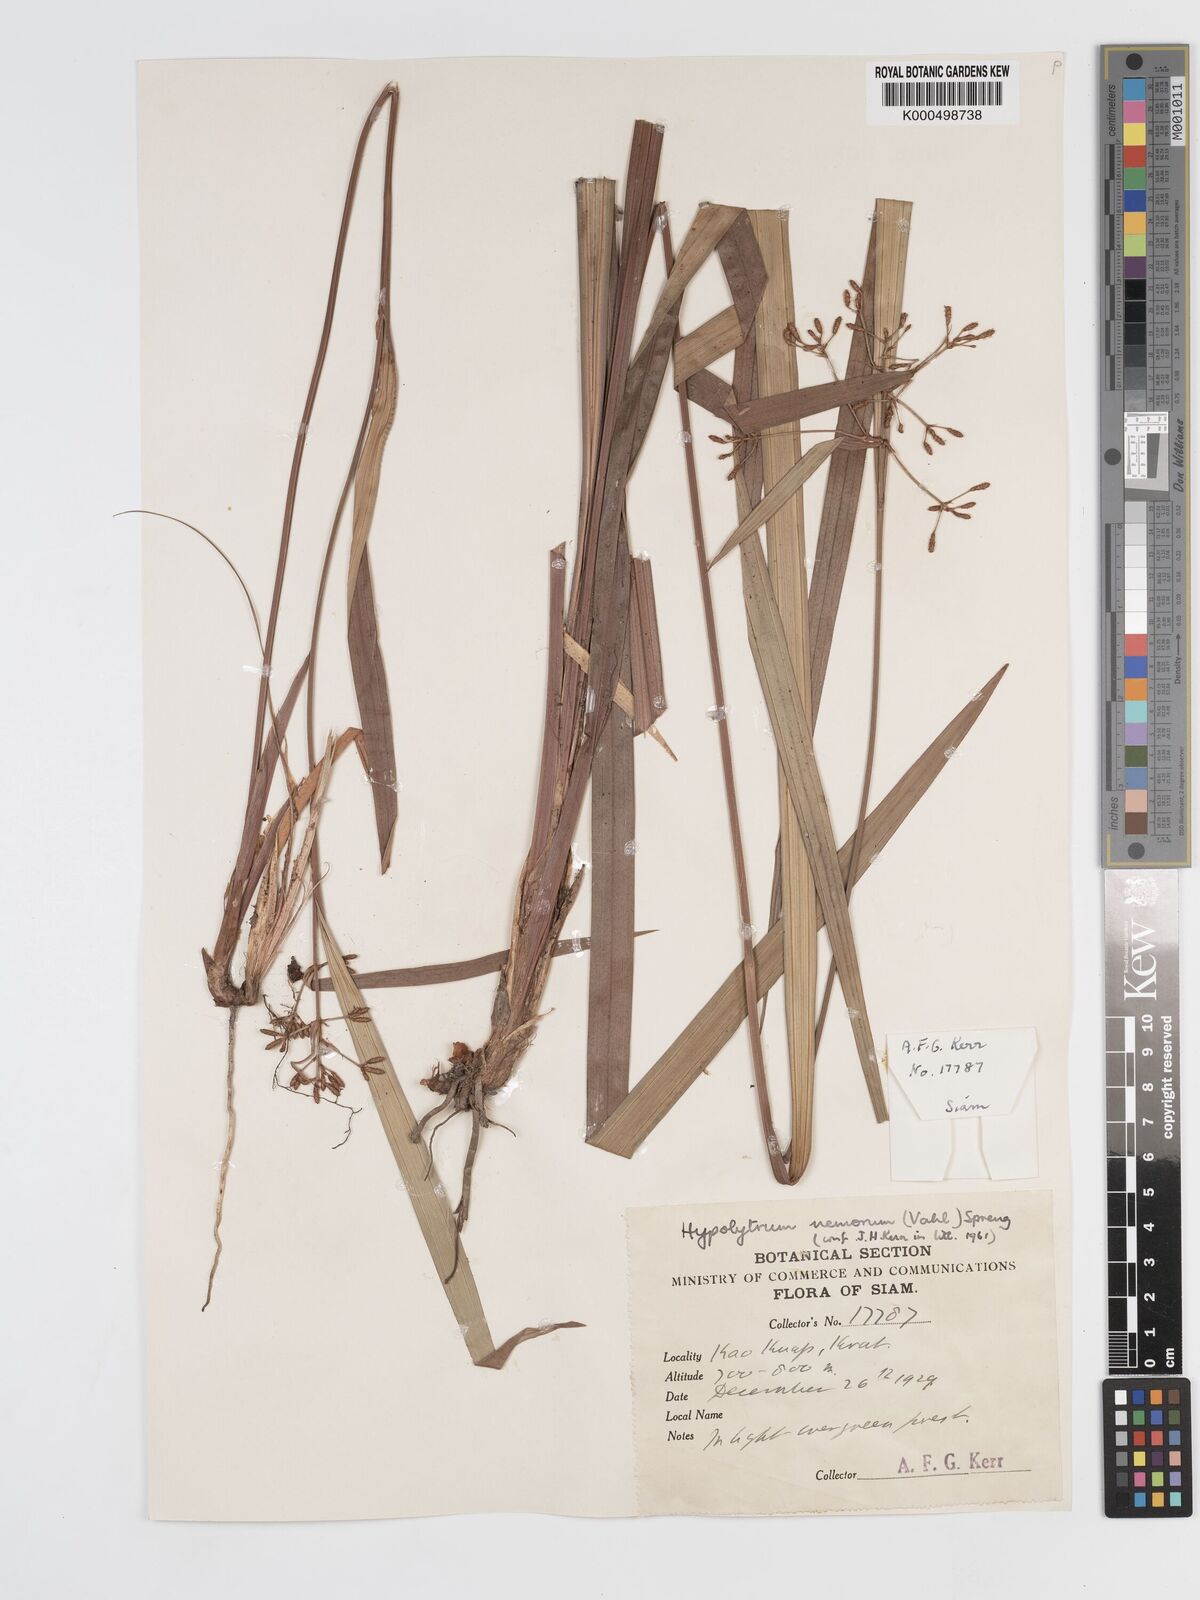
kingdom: Plantae
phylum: Tracheophyta
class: Liliopsida
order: Poales
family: Cyperaceae
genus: Hypolytrum
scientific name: Hypolytrum nemorum
